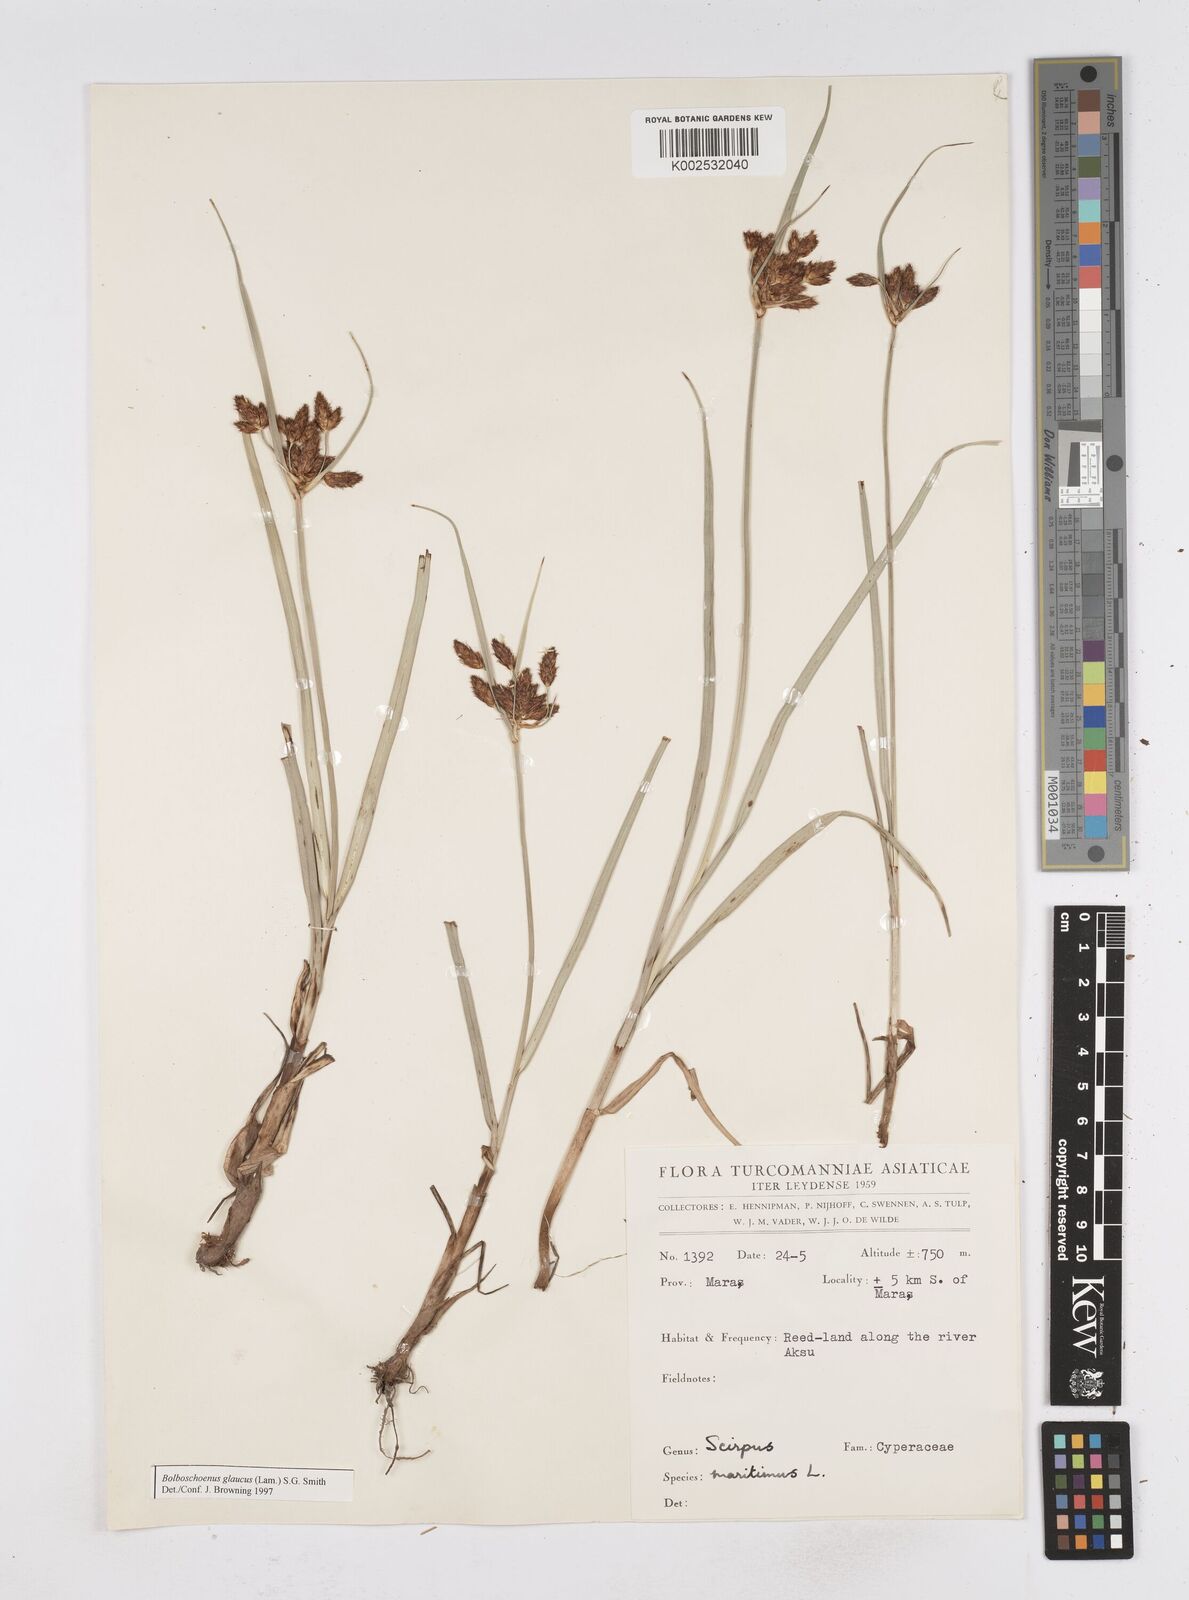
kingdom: Plantae
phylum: Tracheophyta
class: Liliopsida
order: Poales
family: Cyperaceae
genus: Bolboschoenus
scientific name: Bolboschoenus maritimus
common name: Sea club-rush
